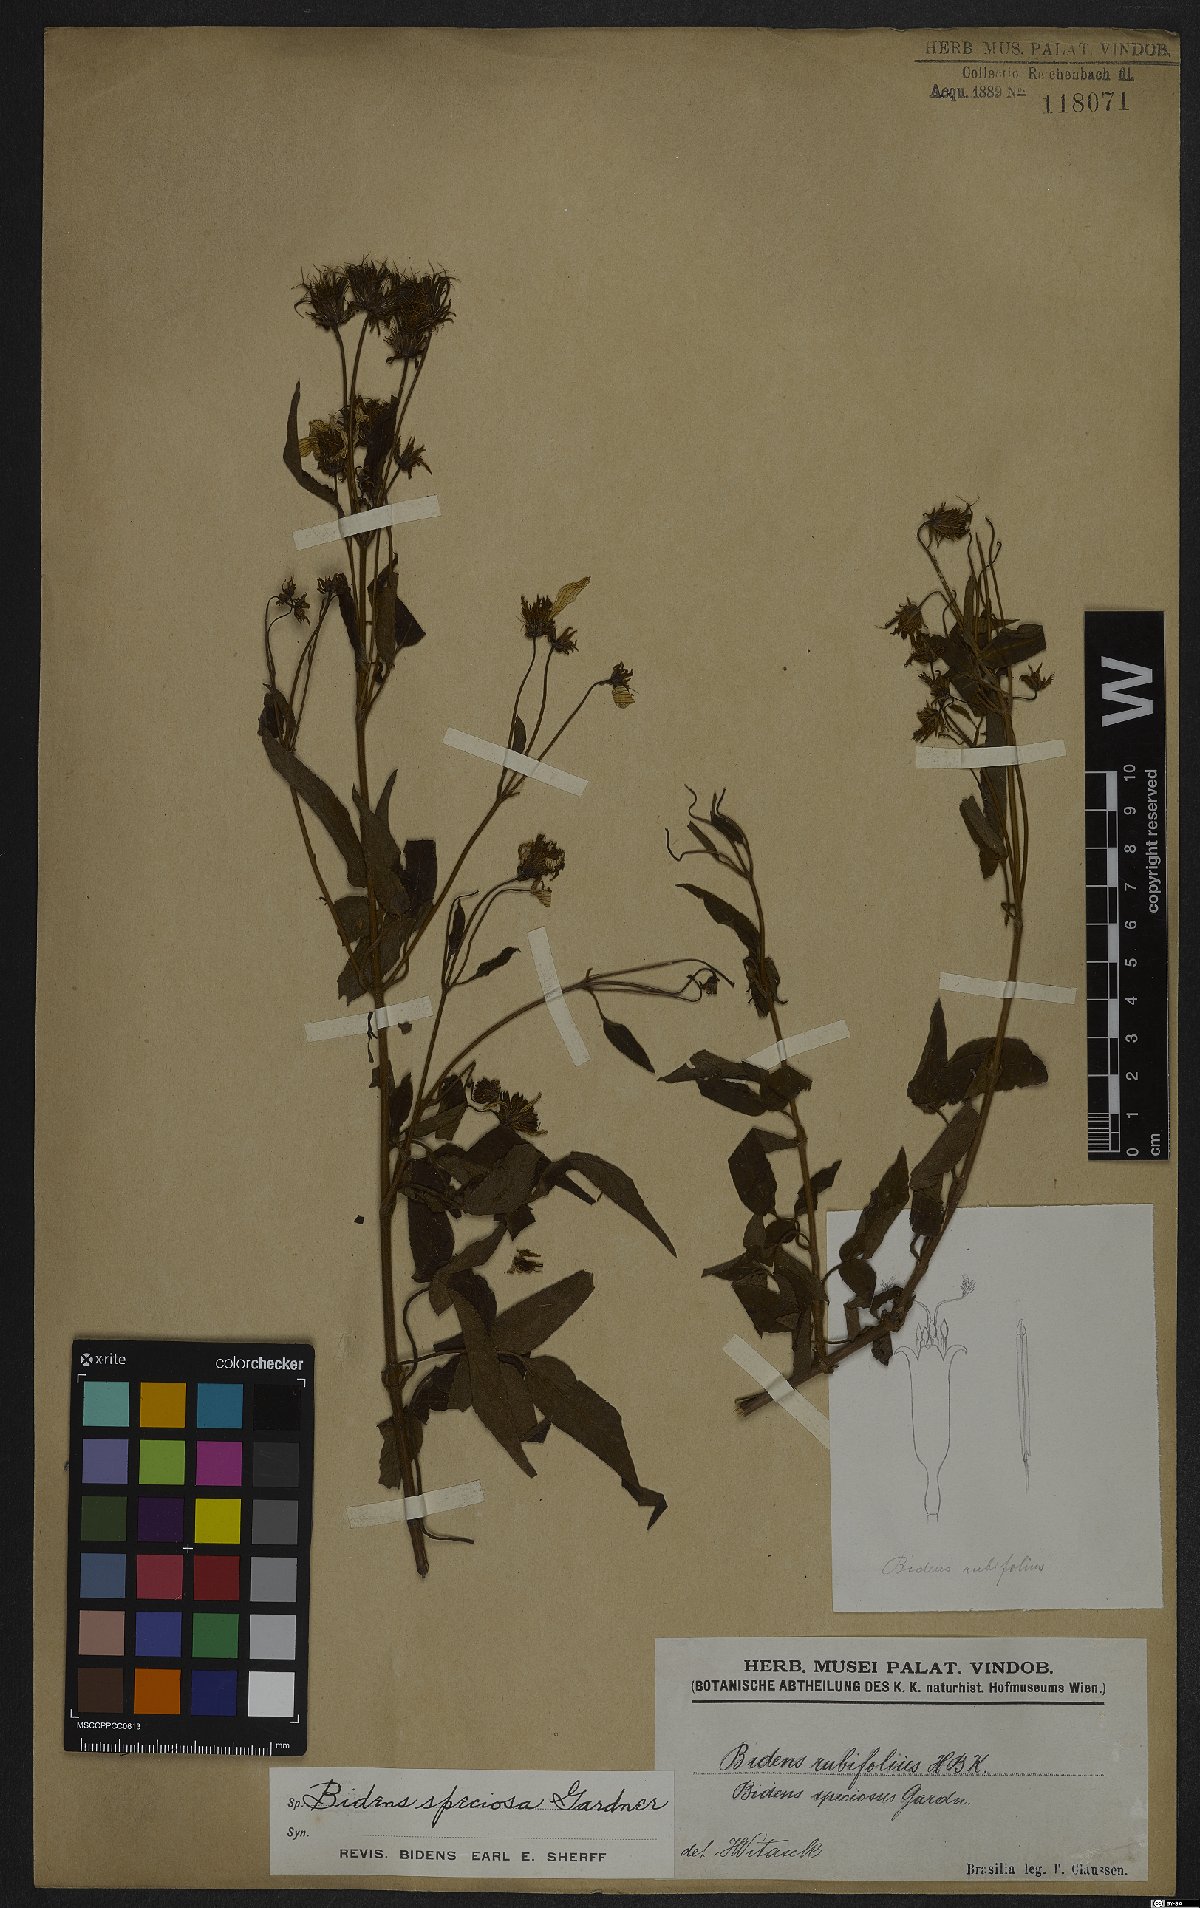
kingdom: Plantae
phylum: Tracheophyta
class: Magnoliopsida
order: Asterales
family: Asteraceae
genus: Bidens
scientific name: Bidens segetum
